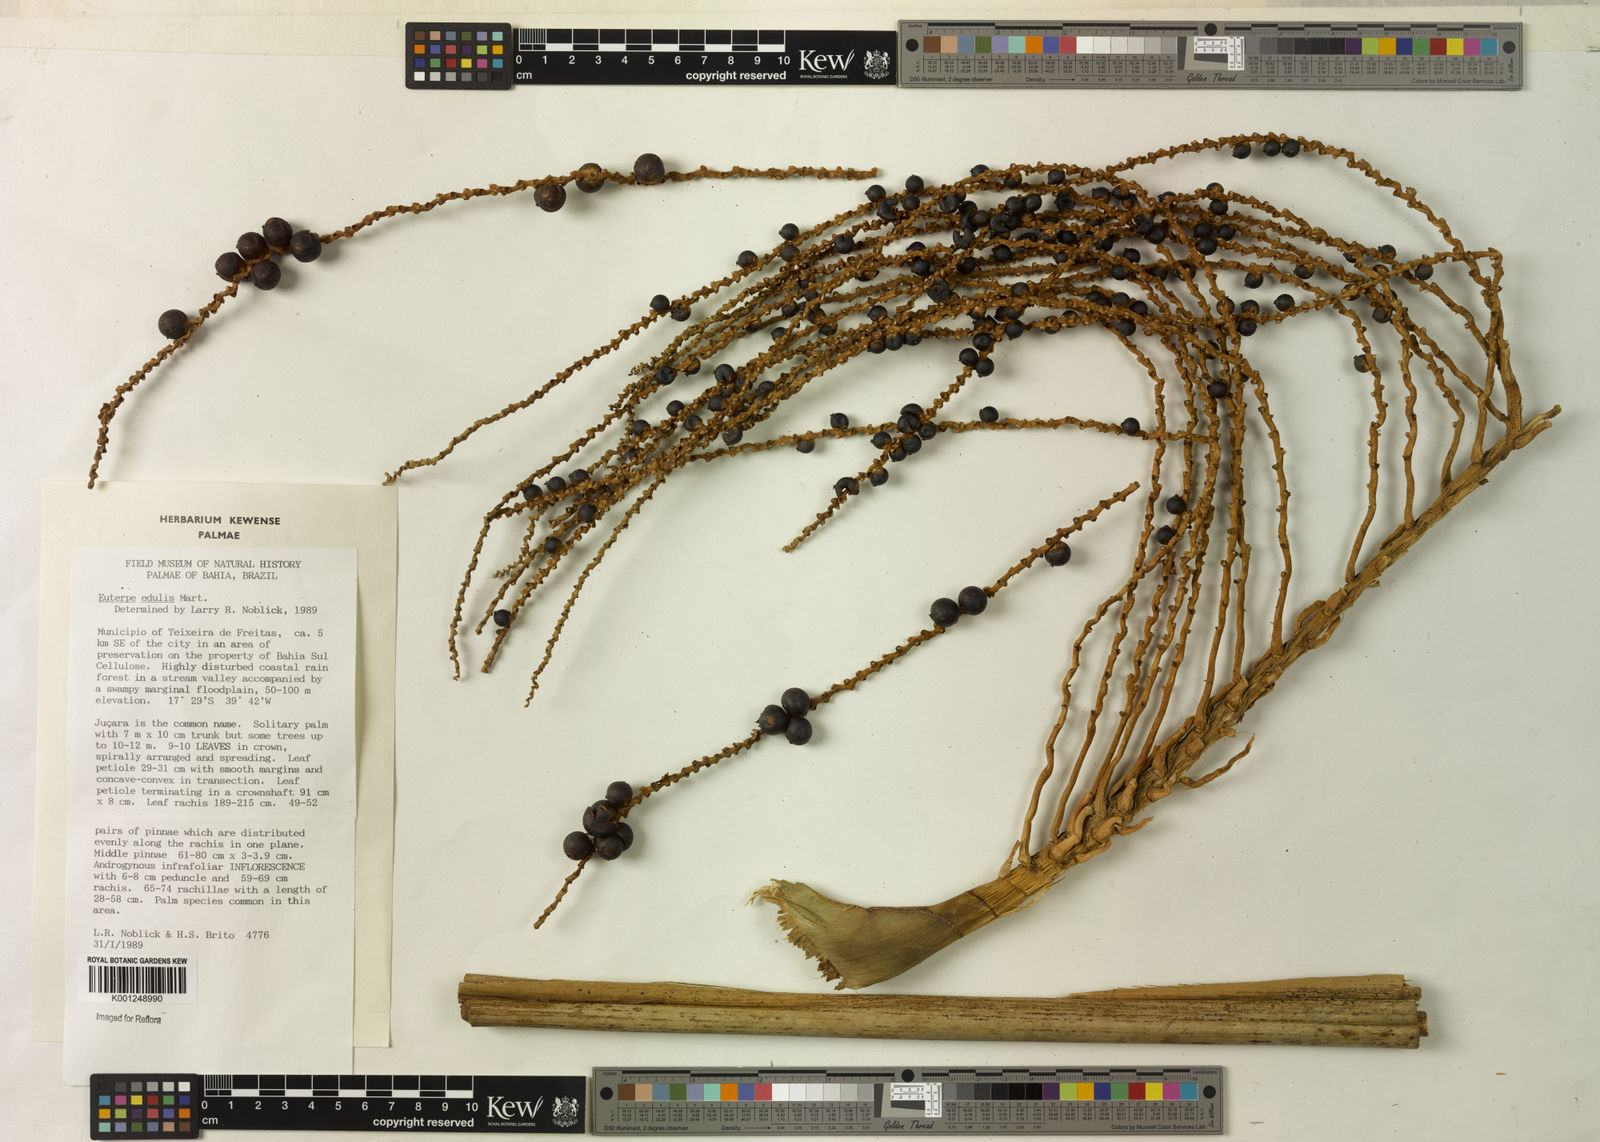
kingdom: Plantae
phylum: Tracheophyta
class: Liliopsida
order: Arecales
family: Arecaceae
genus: Euterpe
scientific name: Euterpe edulis
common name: Assai palm
